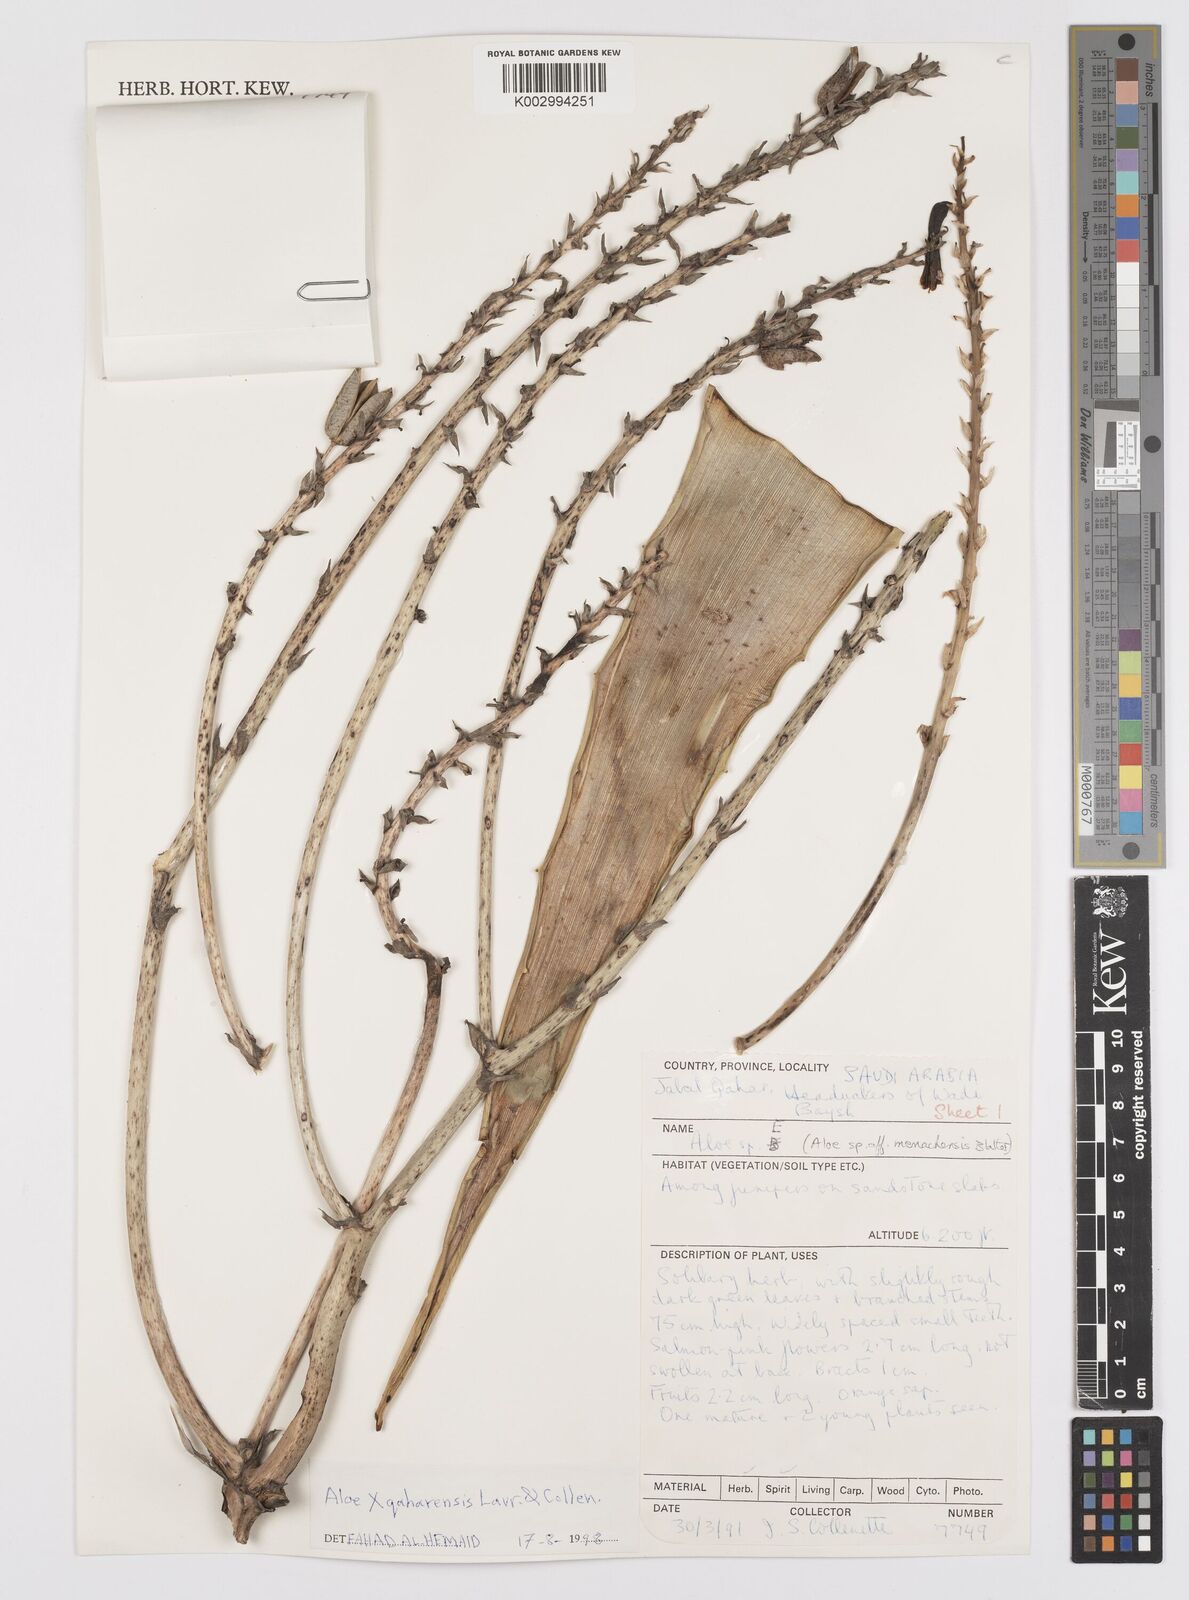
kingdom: Plantae
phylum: Tracheophyta
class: Liliopsida
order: Asparagales
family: Asphodelaceae
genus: Aloe
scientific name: Aloe
